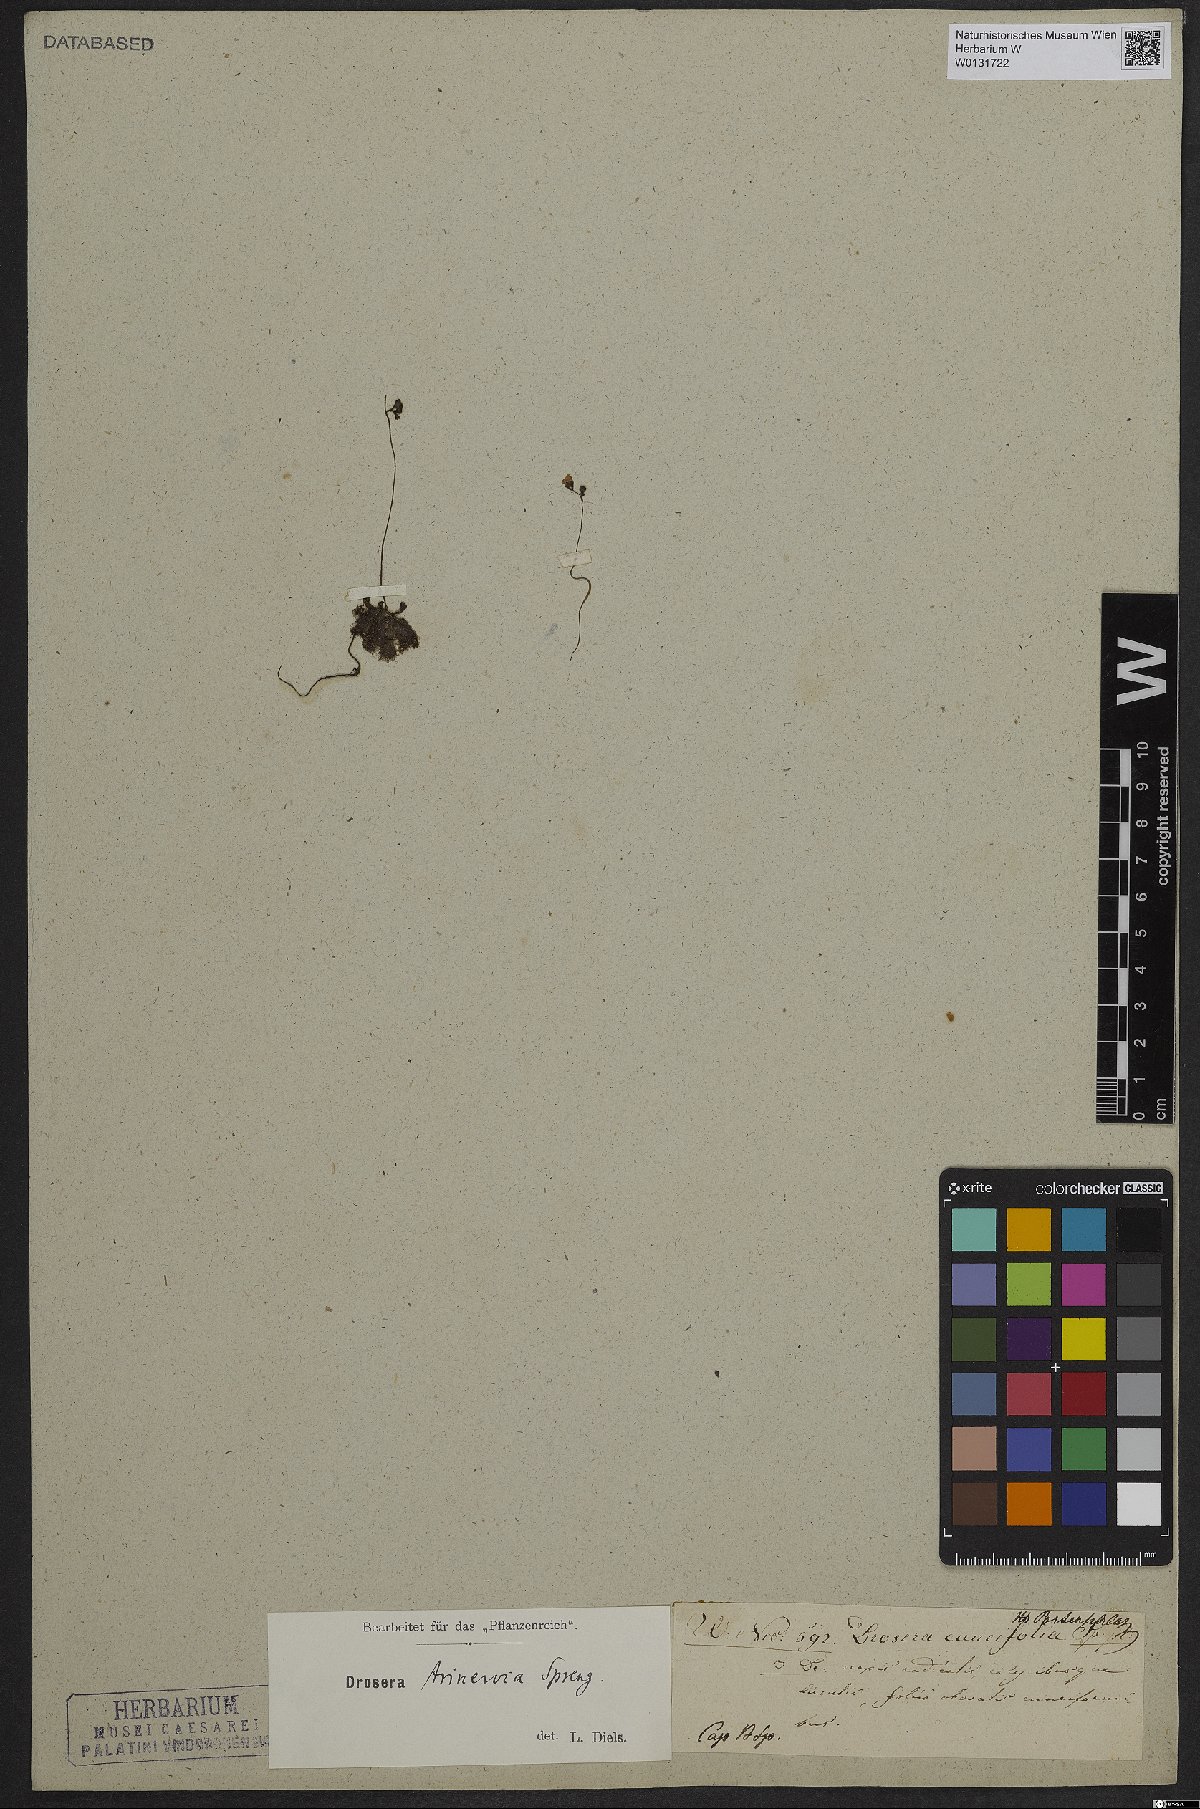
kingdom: Plantae
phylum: Tracheophyta
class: Magnoliopsida
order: Caryophyllales
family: Droseraceae
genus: Drosera
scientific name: Drosera trinervia
